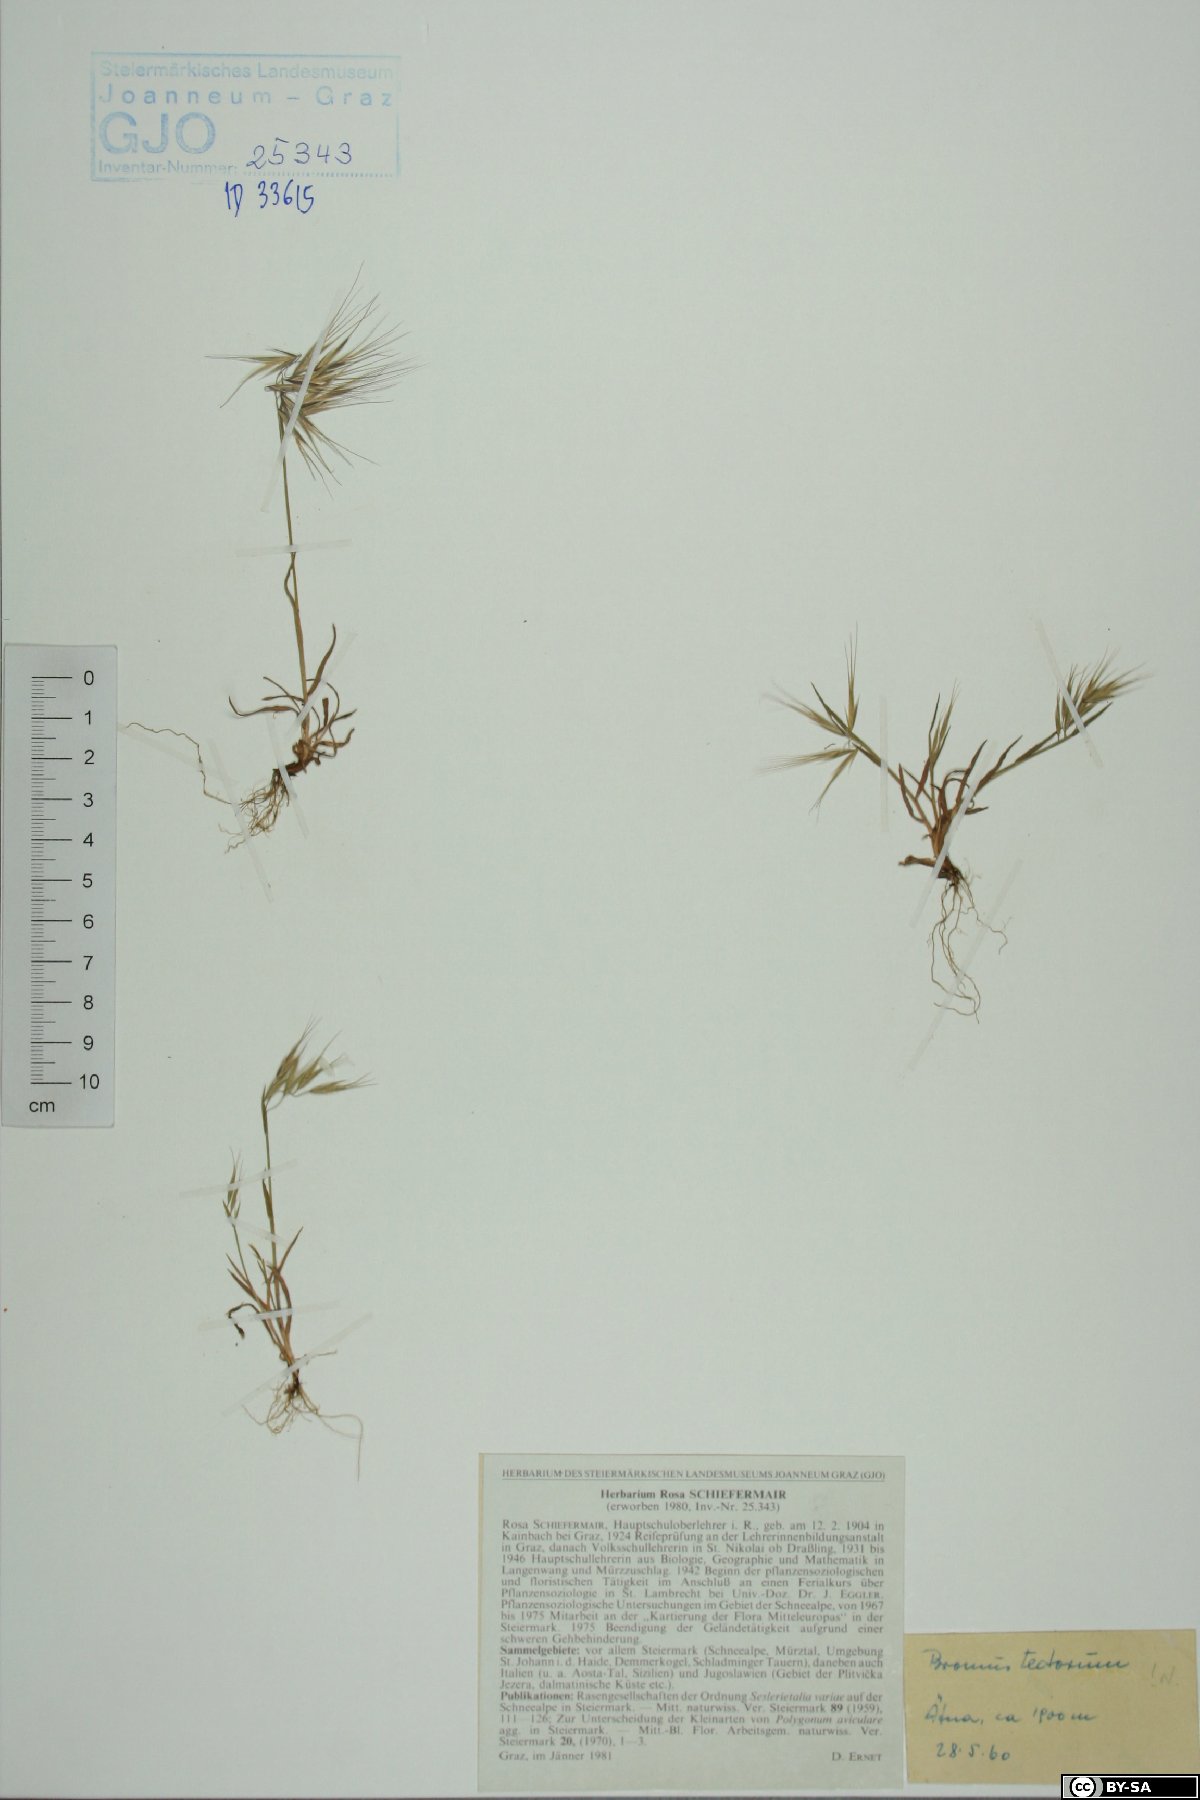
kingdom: Plantae
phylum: Tracheophyta
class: Liliopsida
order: Poales
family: Poaceae
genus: Bromus
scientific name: Bromus tectorum
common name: Cheatgrass
